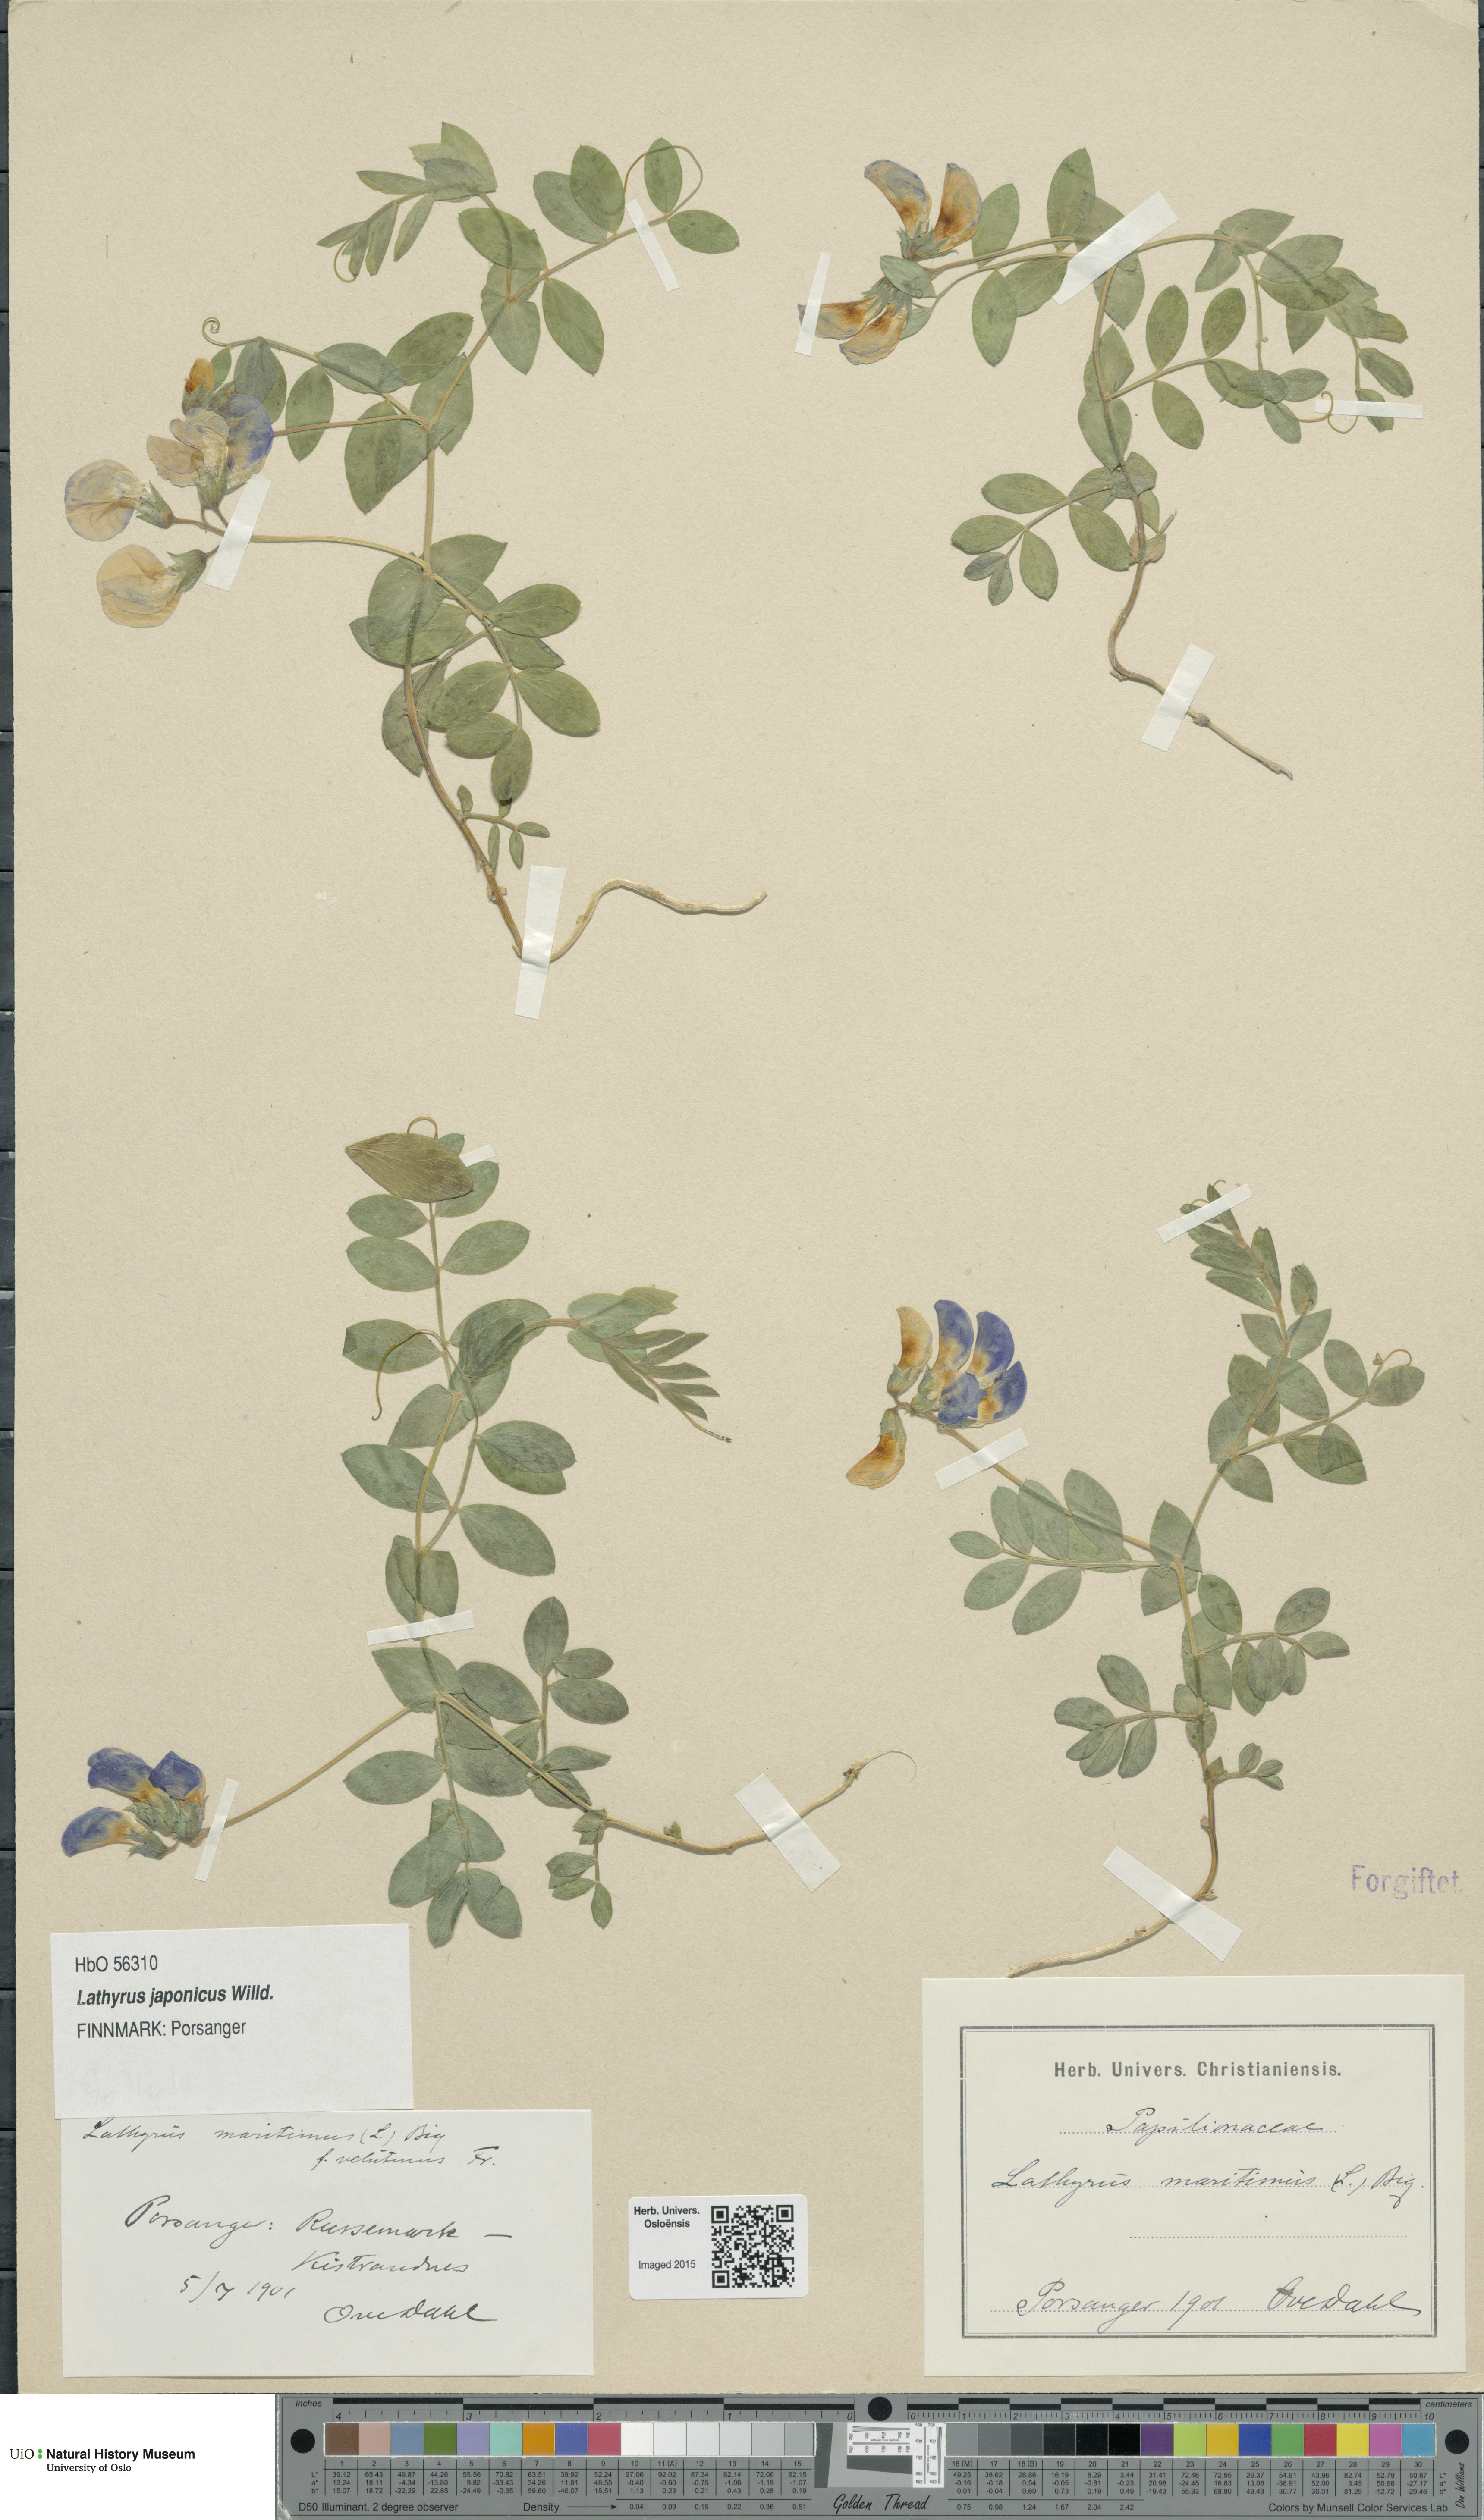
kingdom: Plantae
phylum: Tracheophyta
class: Magnoliopsida
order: Fabales
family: Fabaceae
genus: Lathyrus
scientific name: Lathyrus
